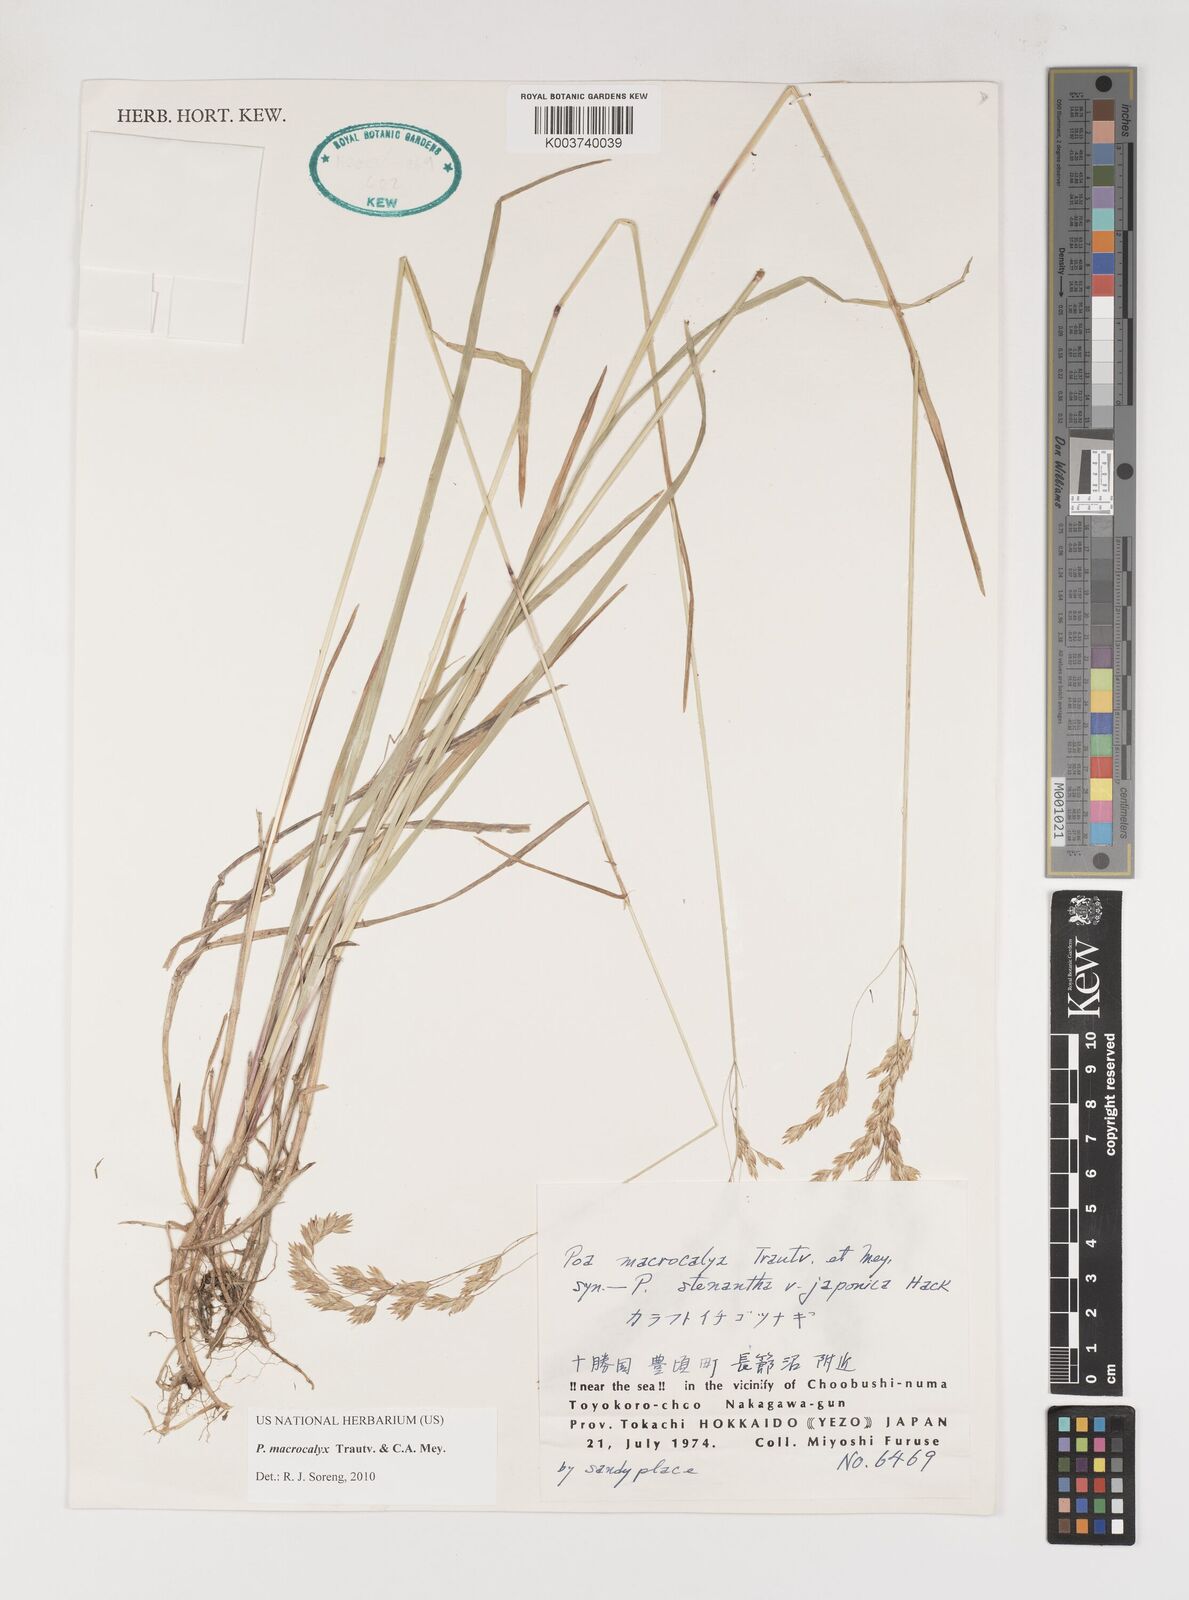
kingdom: Plantae
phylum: Tracheophyta
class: Liliopsida
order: Poales
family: Poaceae
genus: Poa
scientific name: Poa macrocalyx
